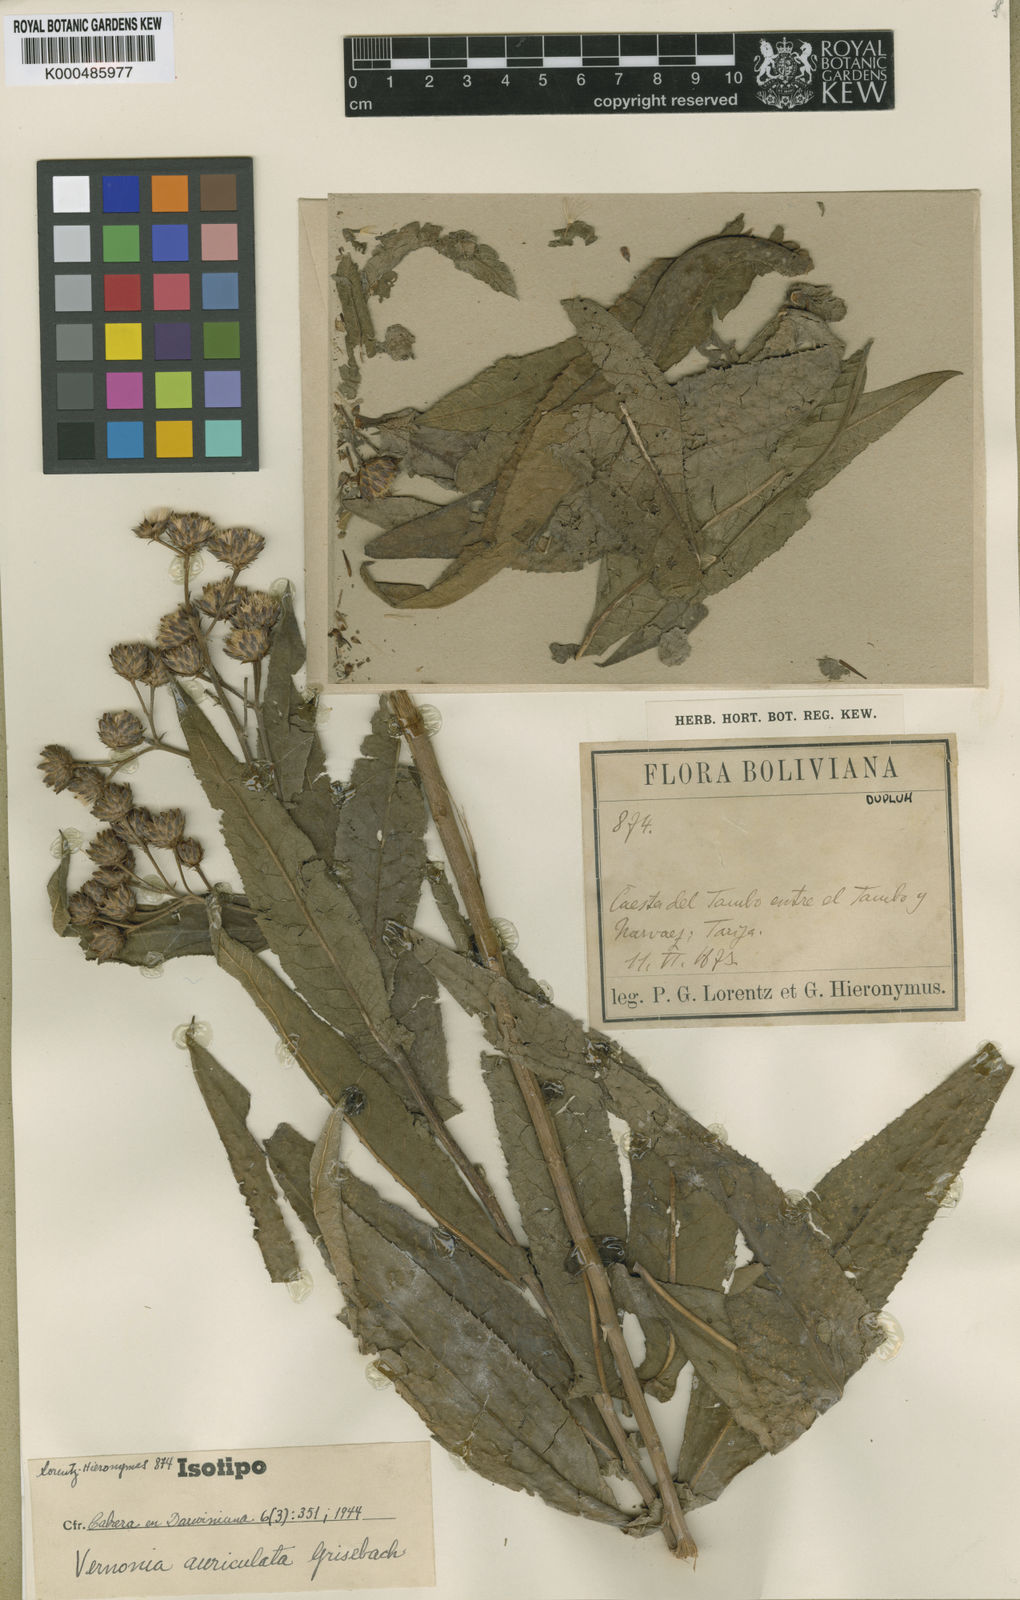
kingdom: Plantae
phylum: Tracheophyta
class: Magnoliopsida
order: Asterales
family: Asteraceae
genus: Vernonanthura
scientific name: Vernonanthura auriculata
